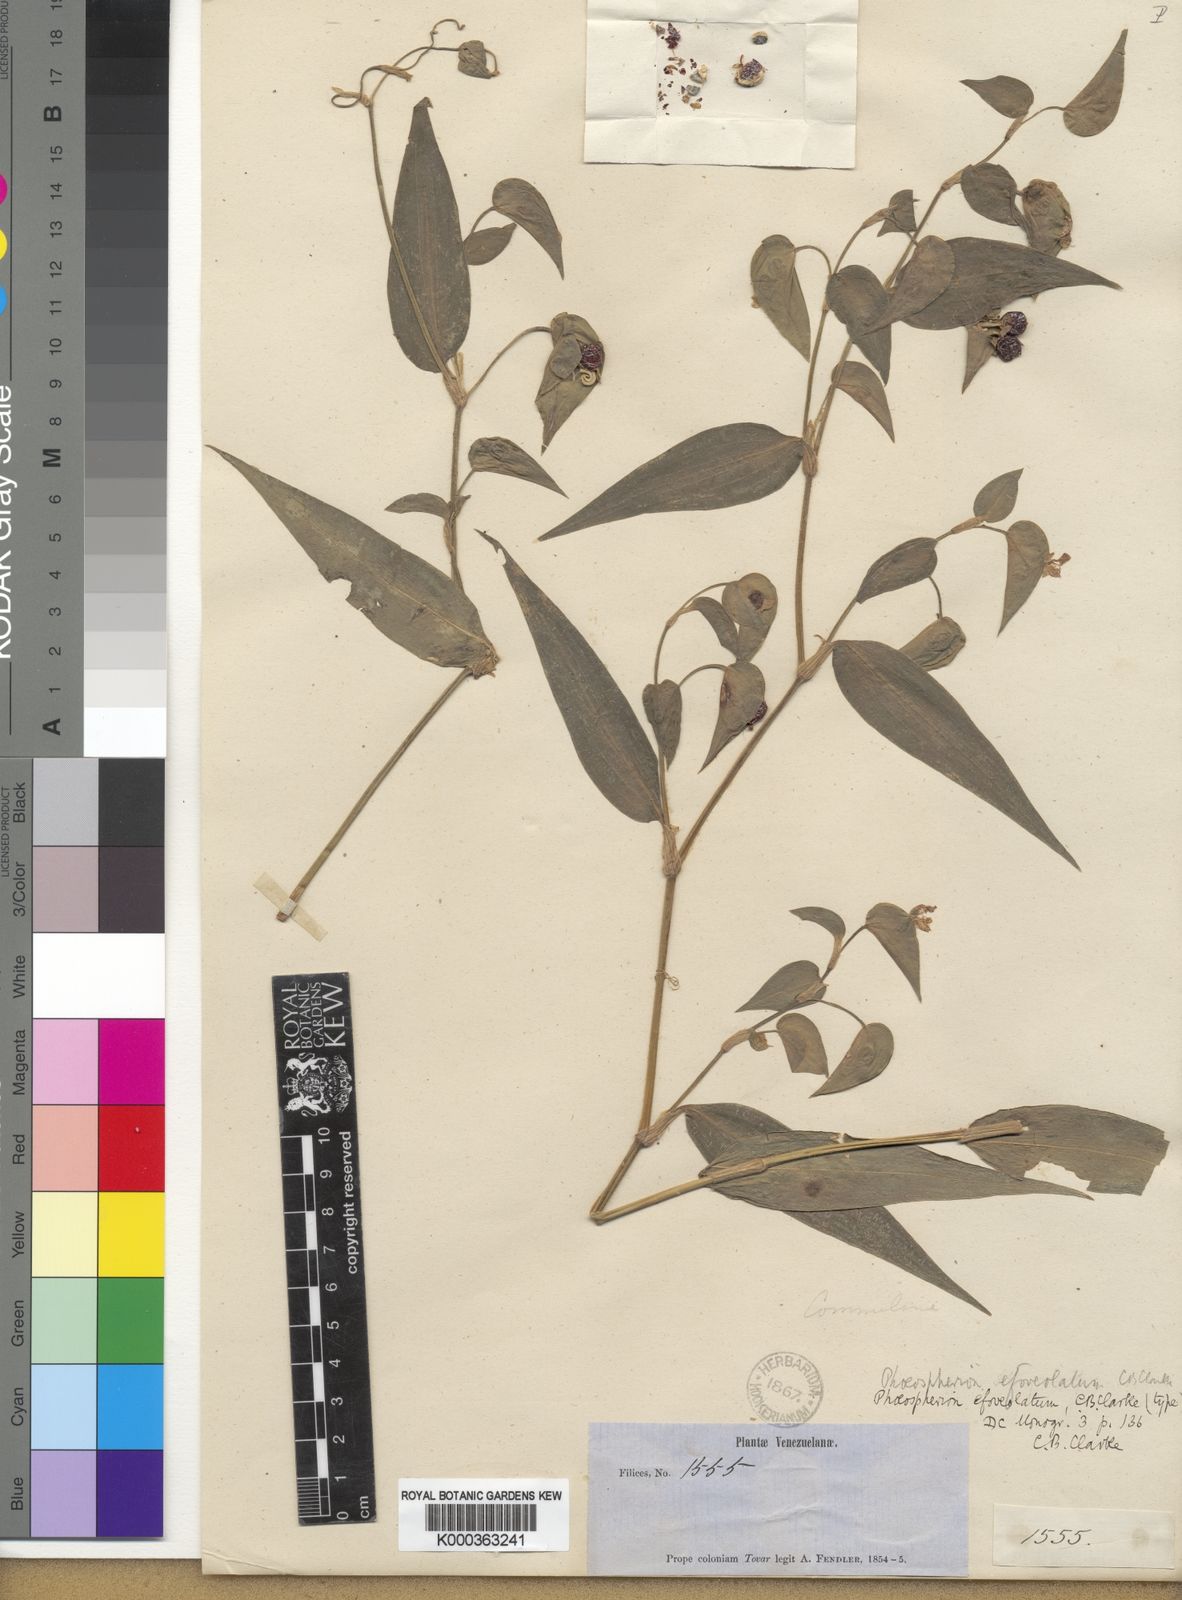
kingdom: Plantae
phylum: Tracheophyta
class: Liliopsida
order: Commelinales
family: Commelinaceae
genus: Commelina
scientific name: Commelina leiocarpa
